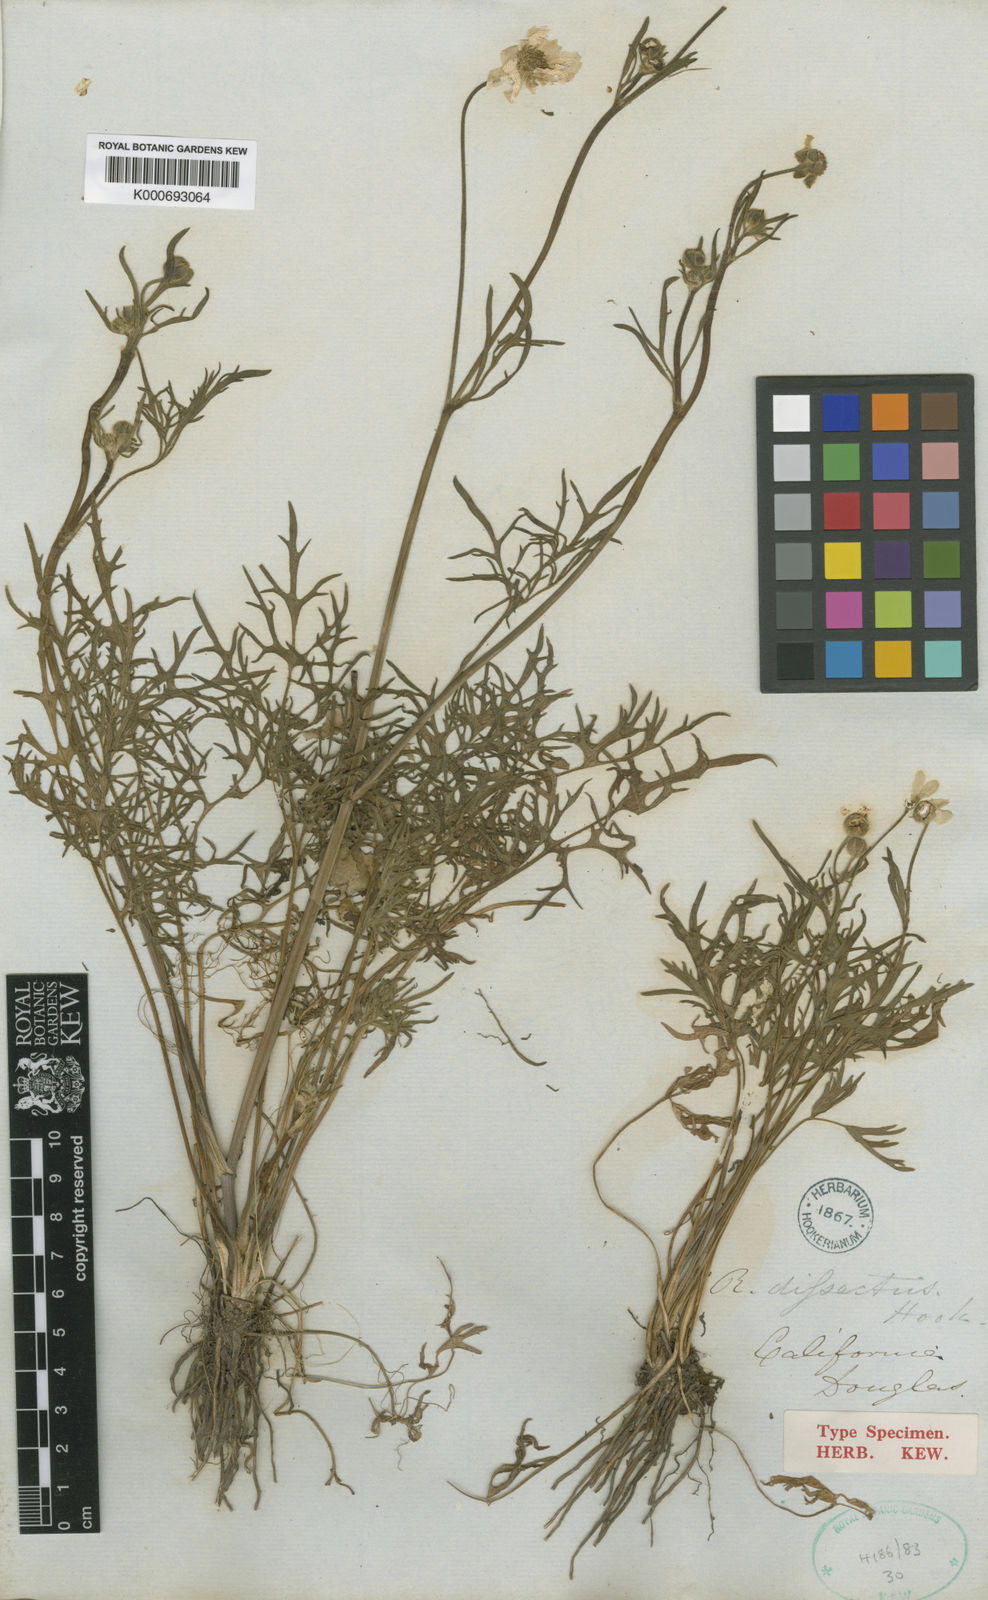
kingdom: Plantae
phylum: Tracheophyta
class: Magnoliopsida
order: Ranunculales
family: Ranunculaceae
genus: Ranunculus
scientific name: Ranunculus californicus
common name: California buttercup
